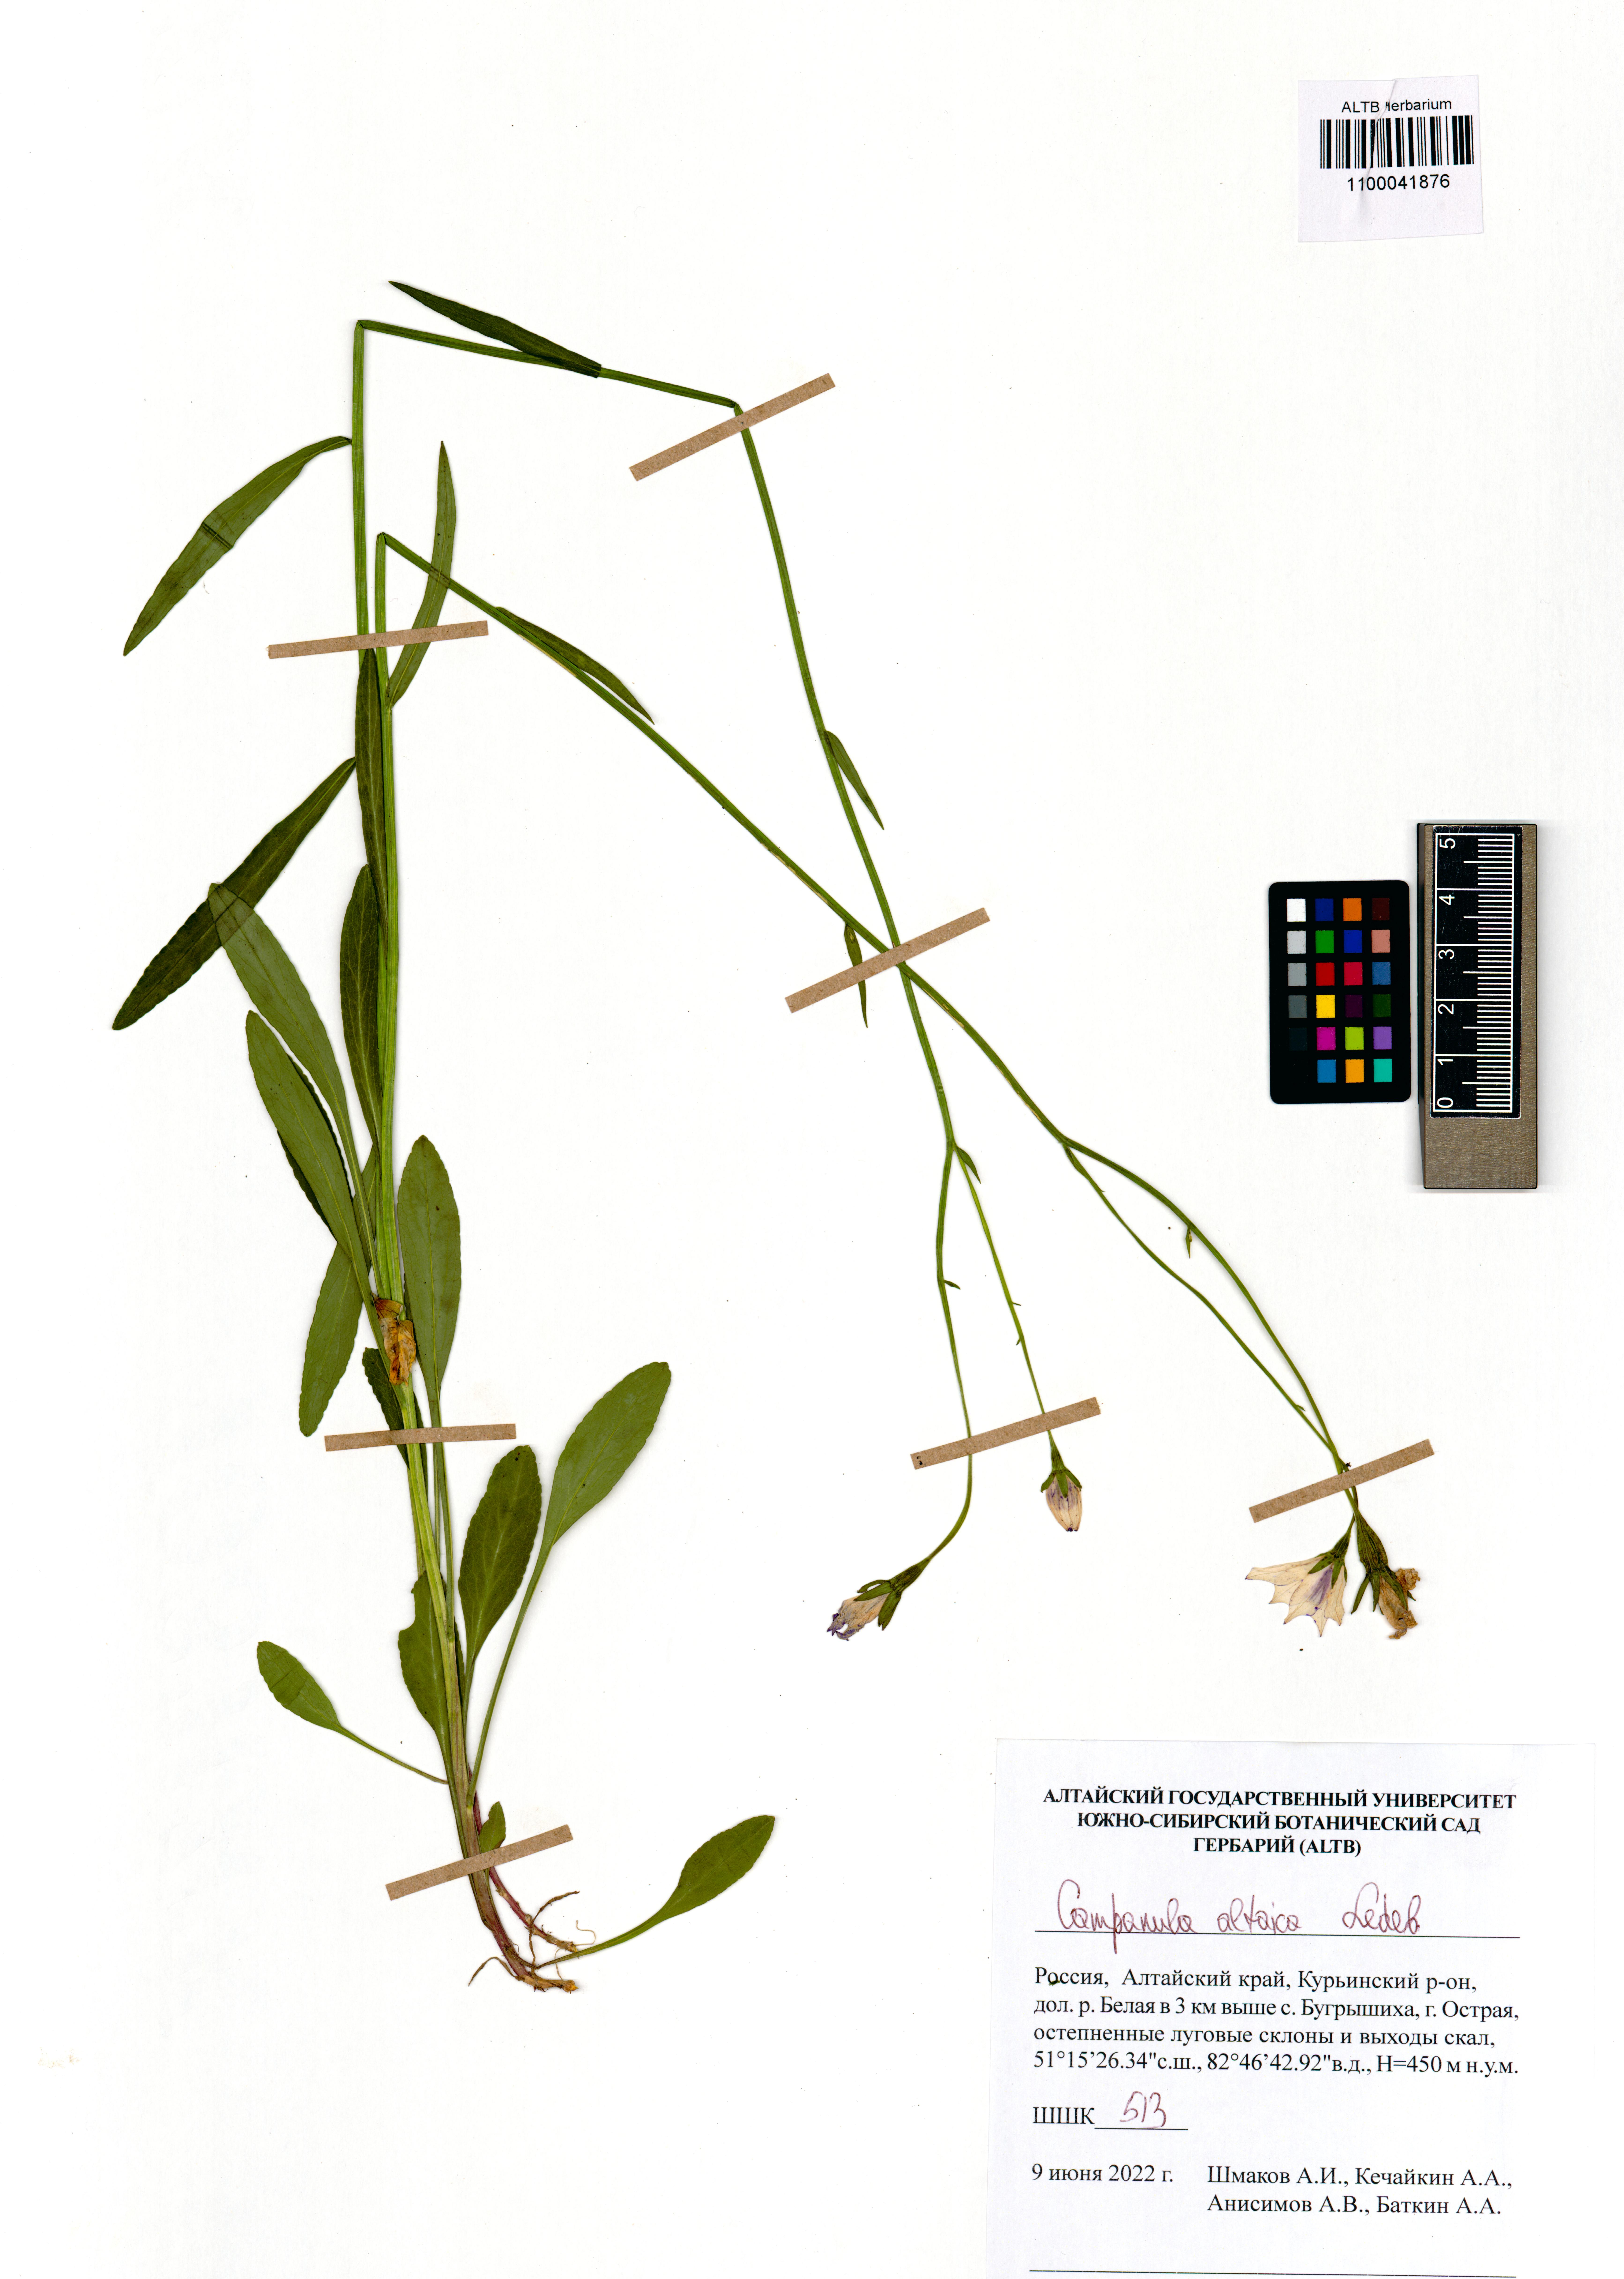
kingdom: Plantae
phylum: Tracheophyta
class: Magnoliopsida
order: Asterales
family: Campanulaceae
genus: Campanula
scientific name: Campanula stevenii
